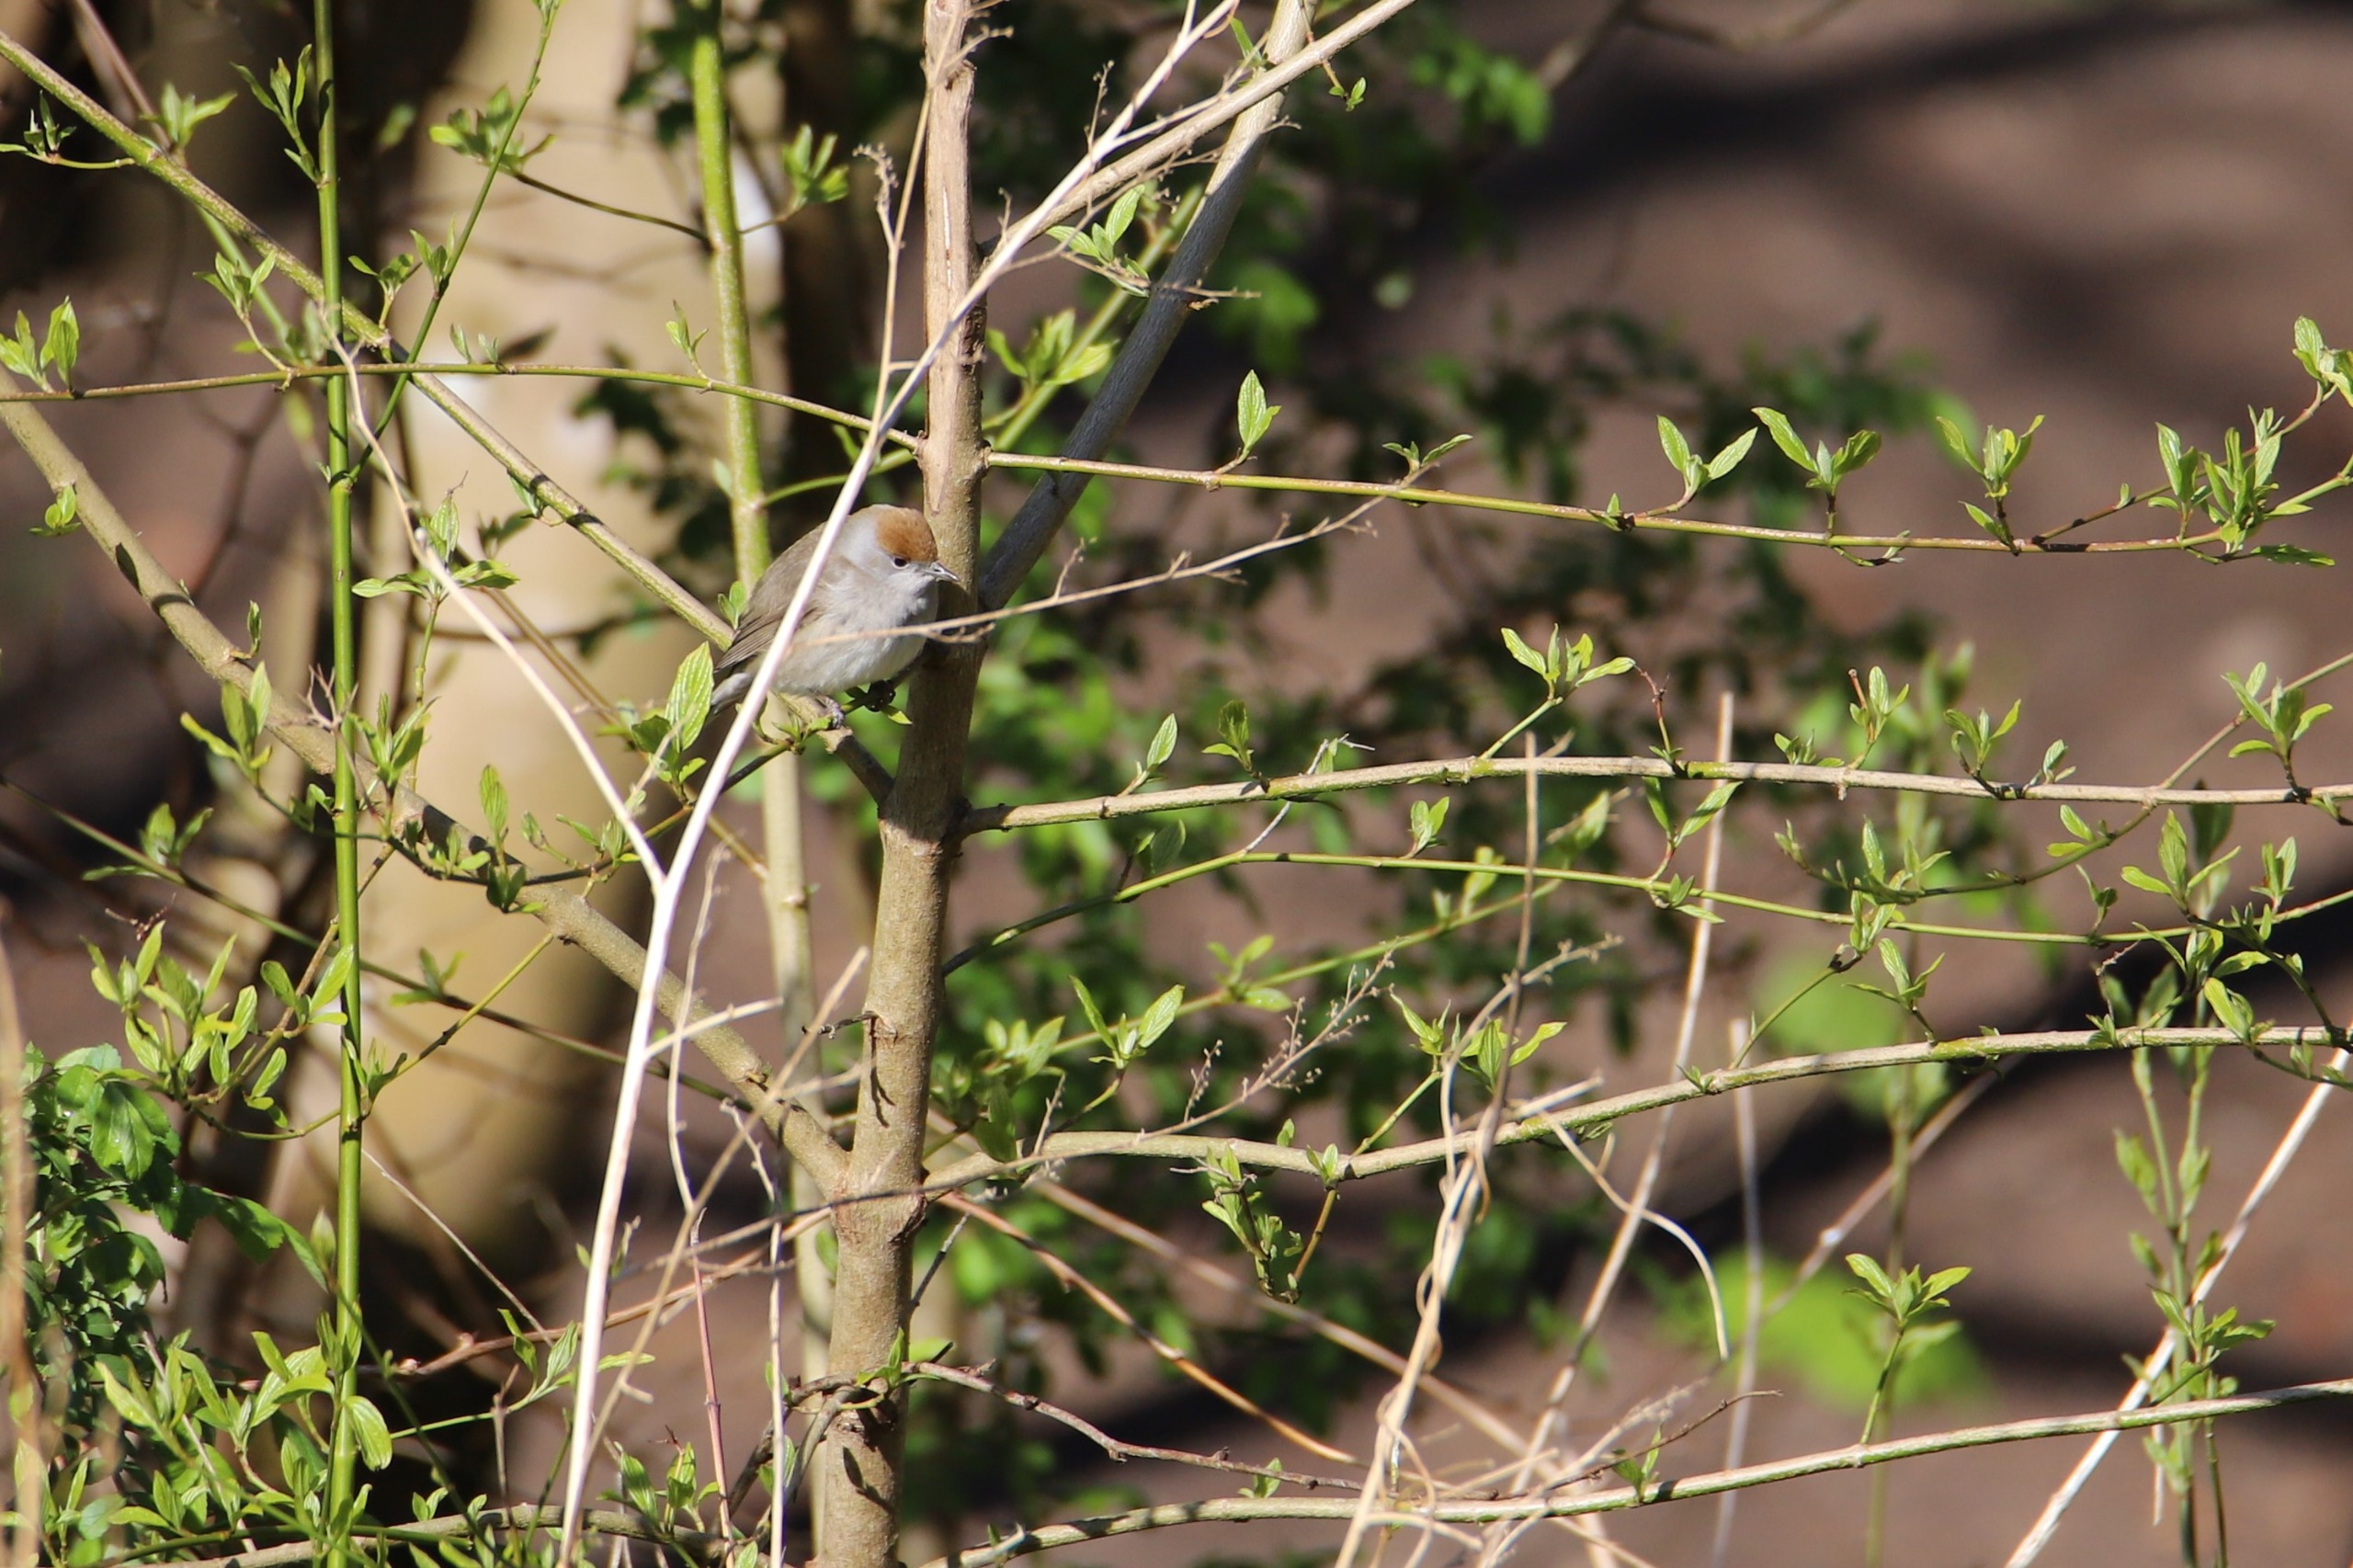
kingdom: Animalia
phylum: Chordata
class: Aves
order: Passeriformes
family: Sylviidae
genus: Sylvia
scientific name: Sylvia atricapilla
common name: Munk
